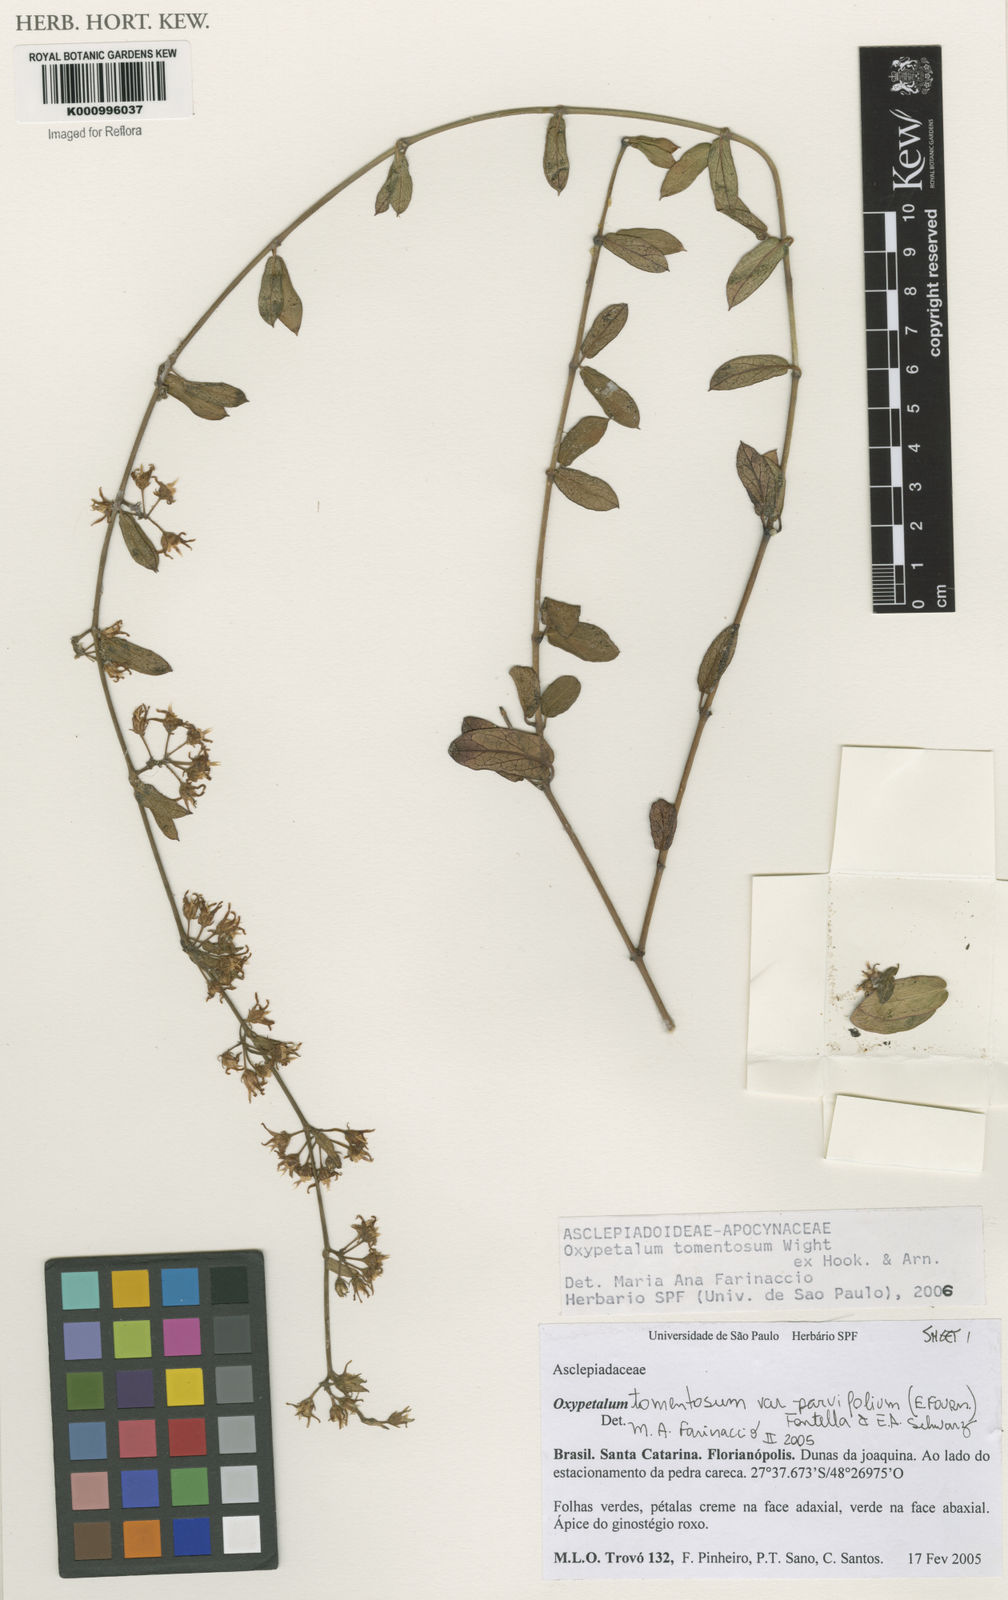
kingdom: Plantae
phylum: Tracheophyta
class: Magnoliopsida
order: Gentianales
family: Apocynaceae
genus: Oxypetalum
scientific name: Oxypetalum tomentosum
